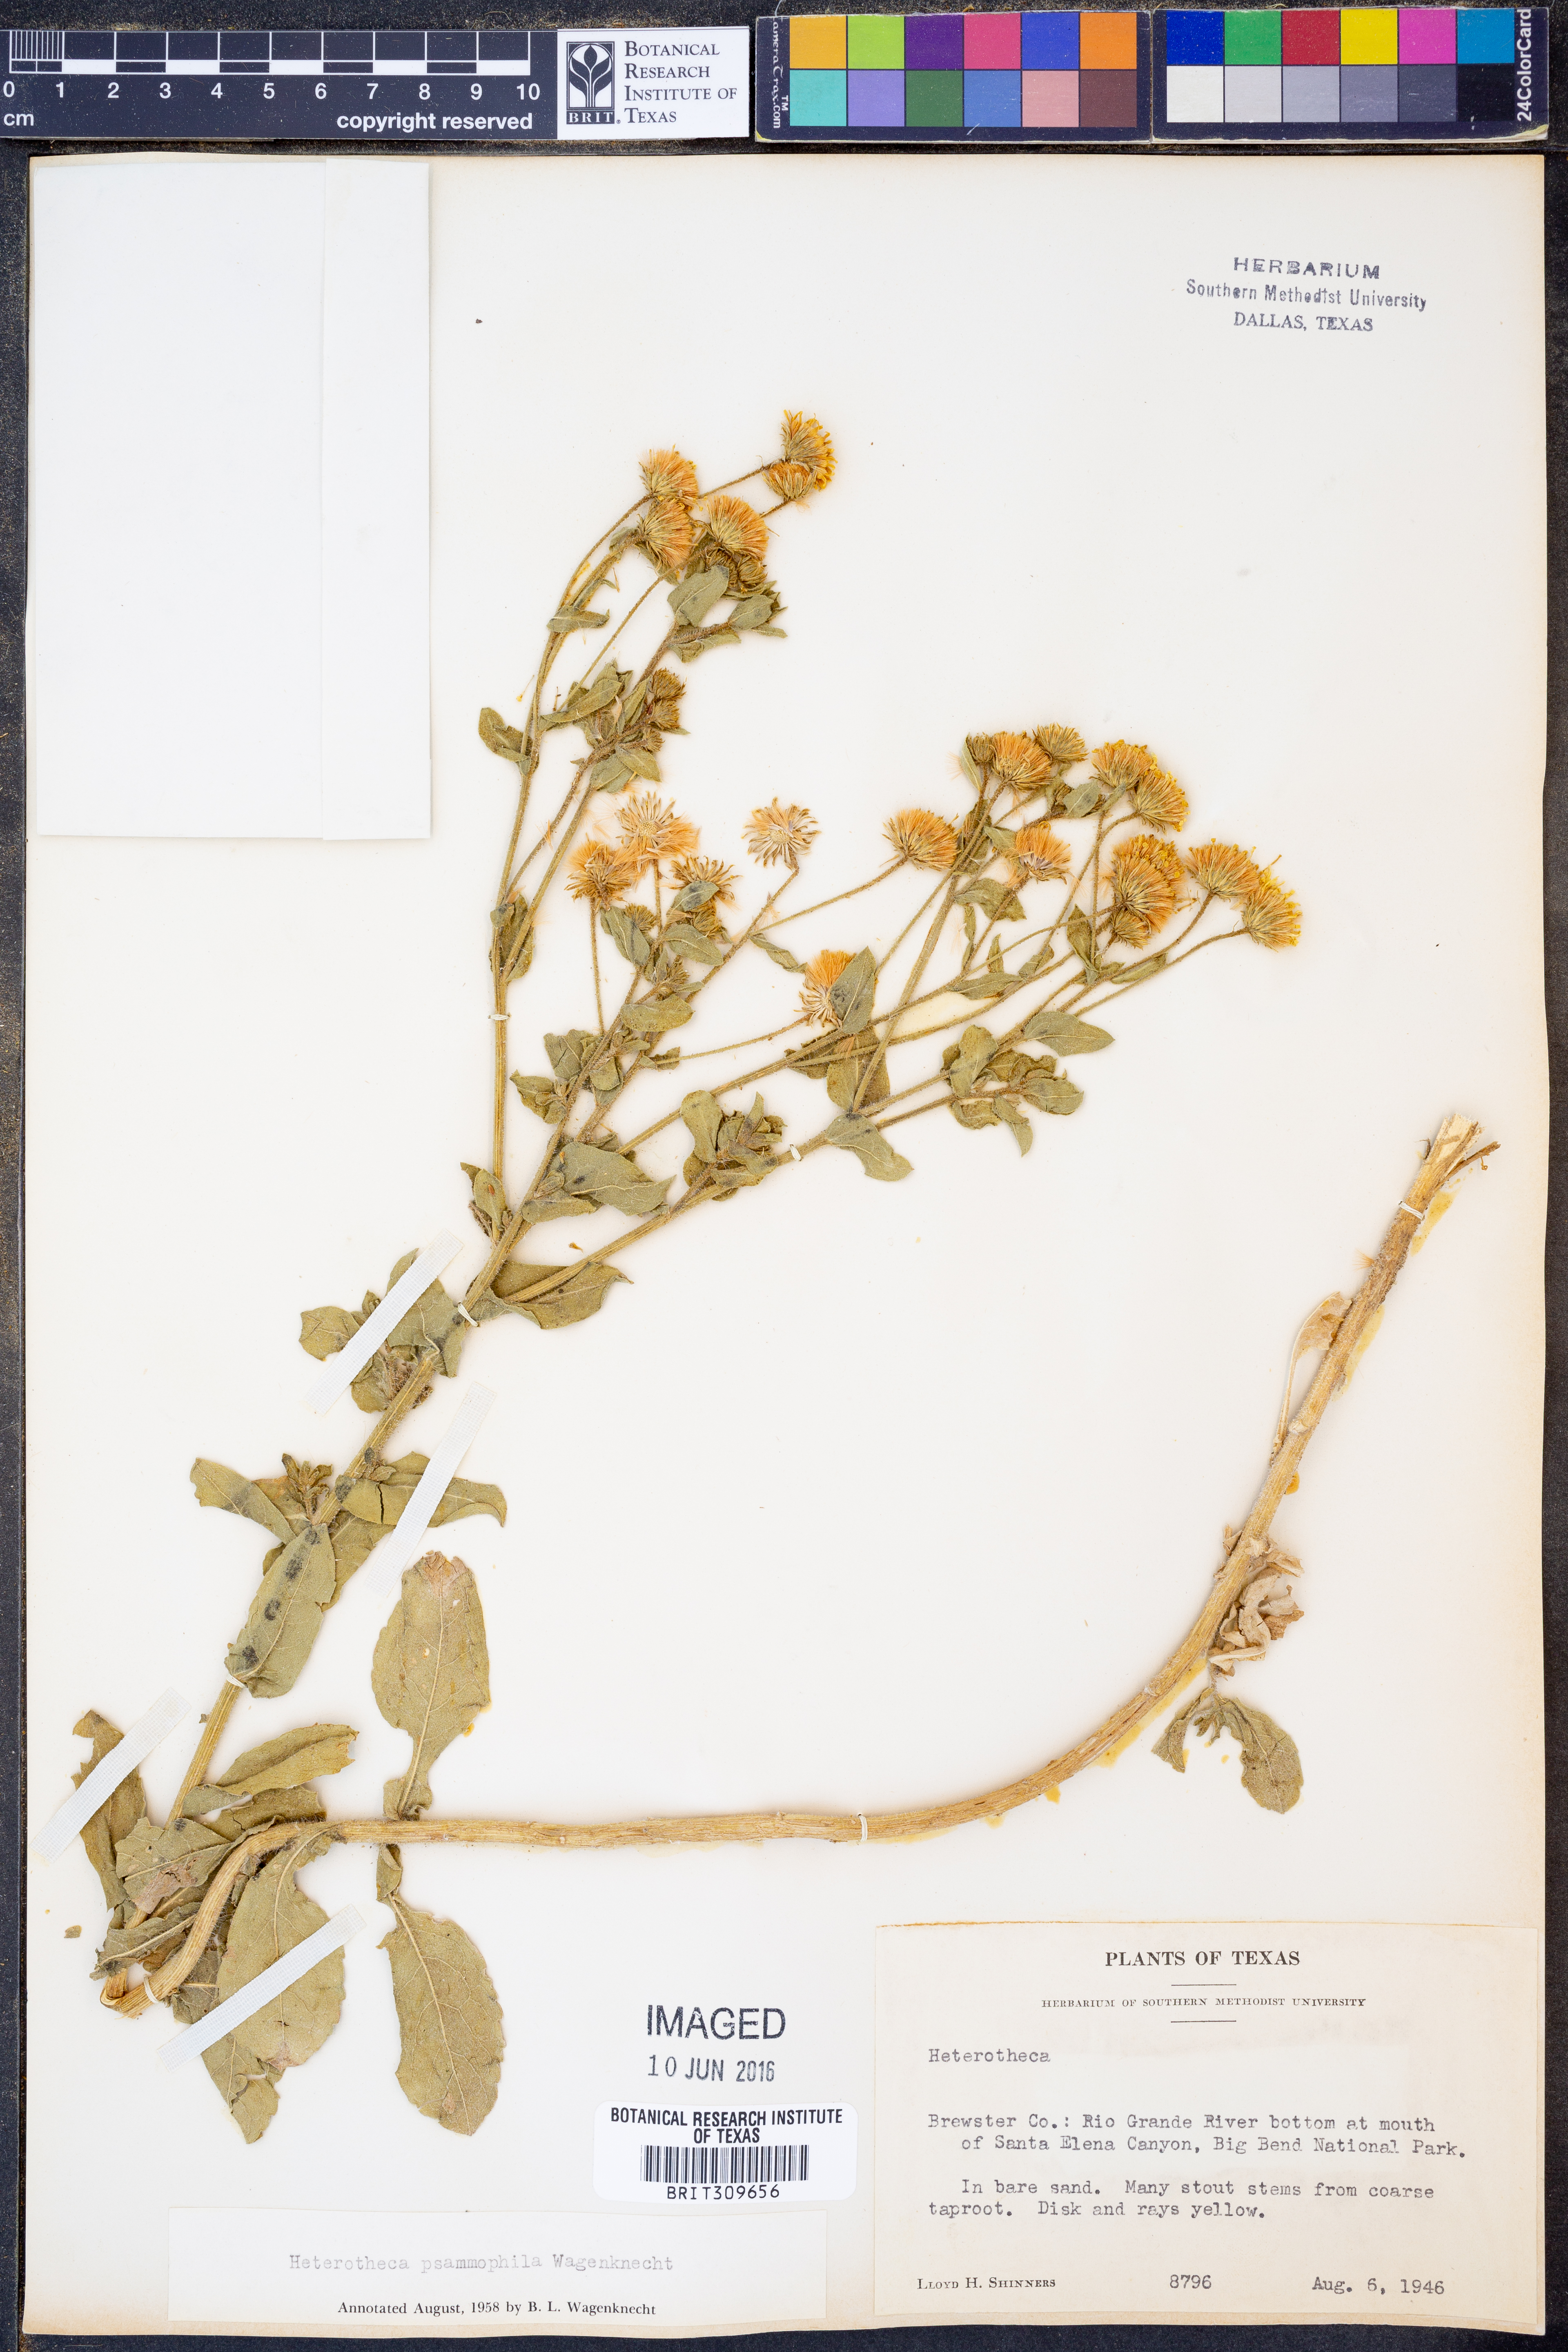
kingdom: Plantae
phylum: Tracheophyta
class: Magnoliopsida
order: Asterales
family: Asteraceae
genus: Heterotheca
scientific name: Heterotheca psammophila
